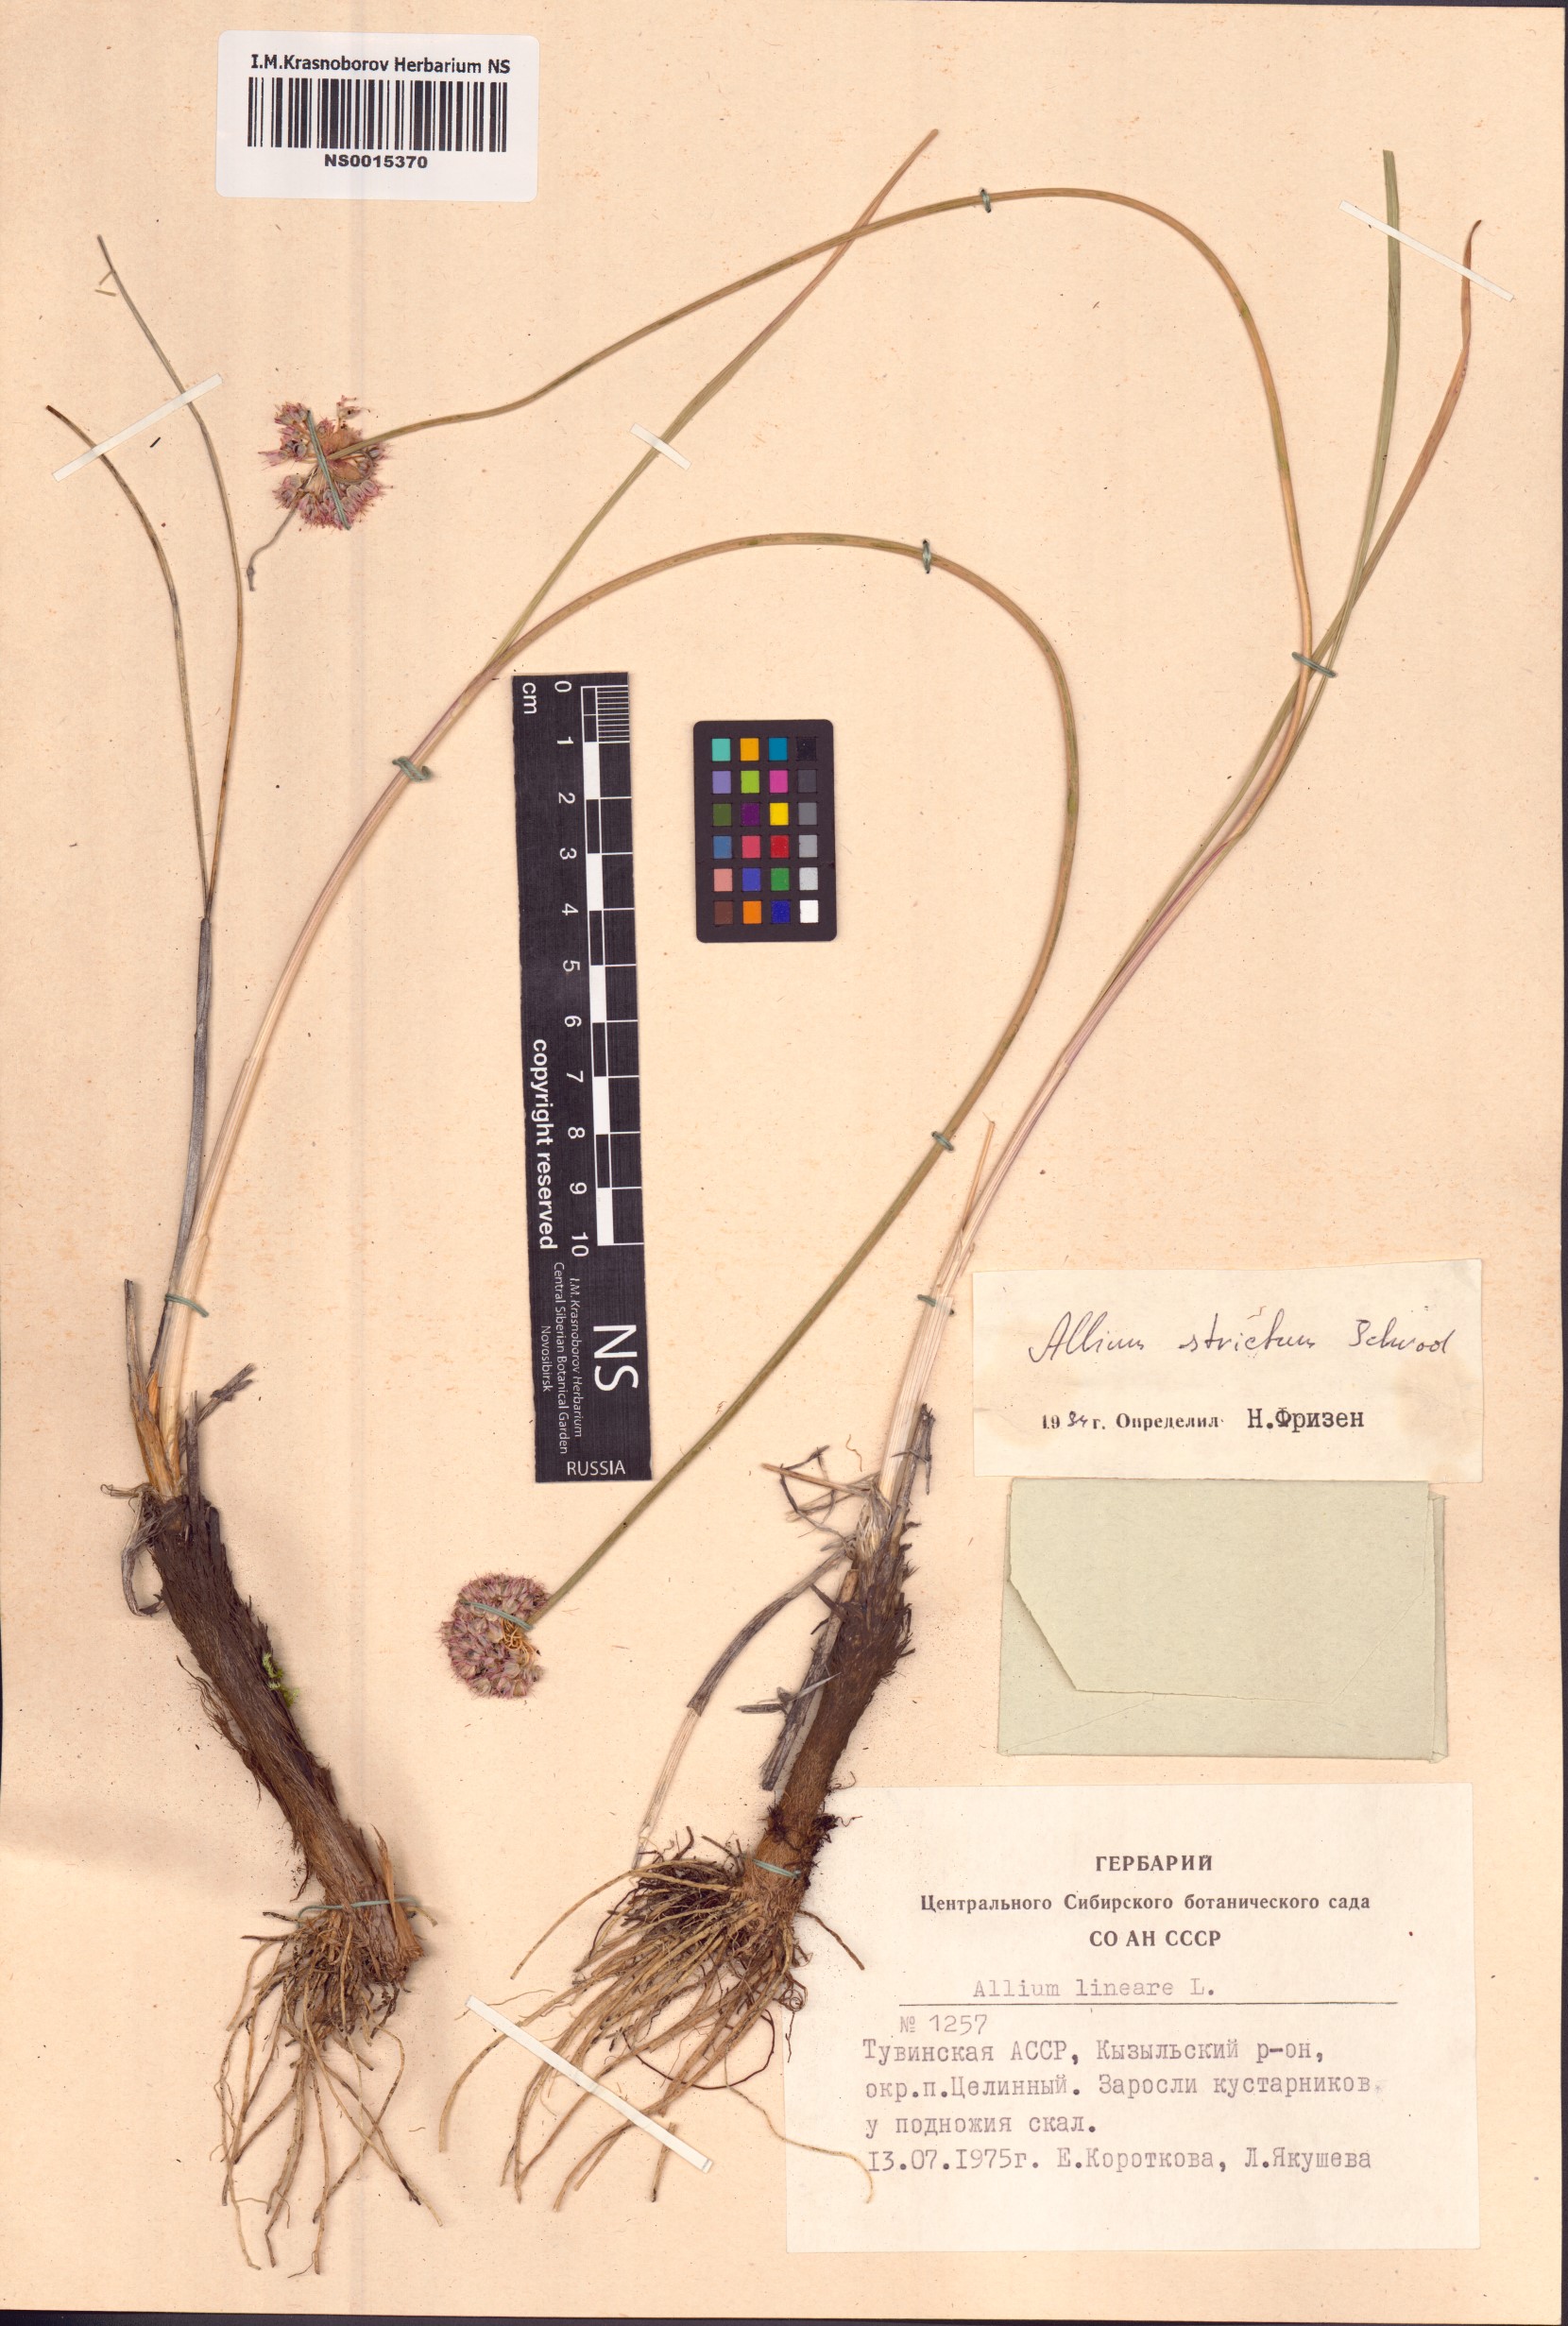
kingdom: Plantae
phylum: Tracheophyta
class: Liliopsida
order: Asparagales
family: Amaryllidaceae
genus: Allium
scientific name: Allium strictum
